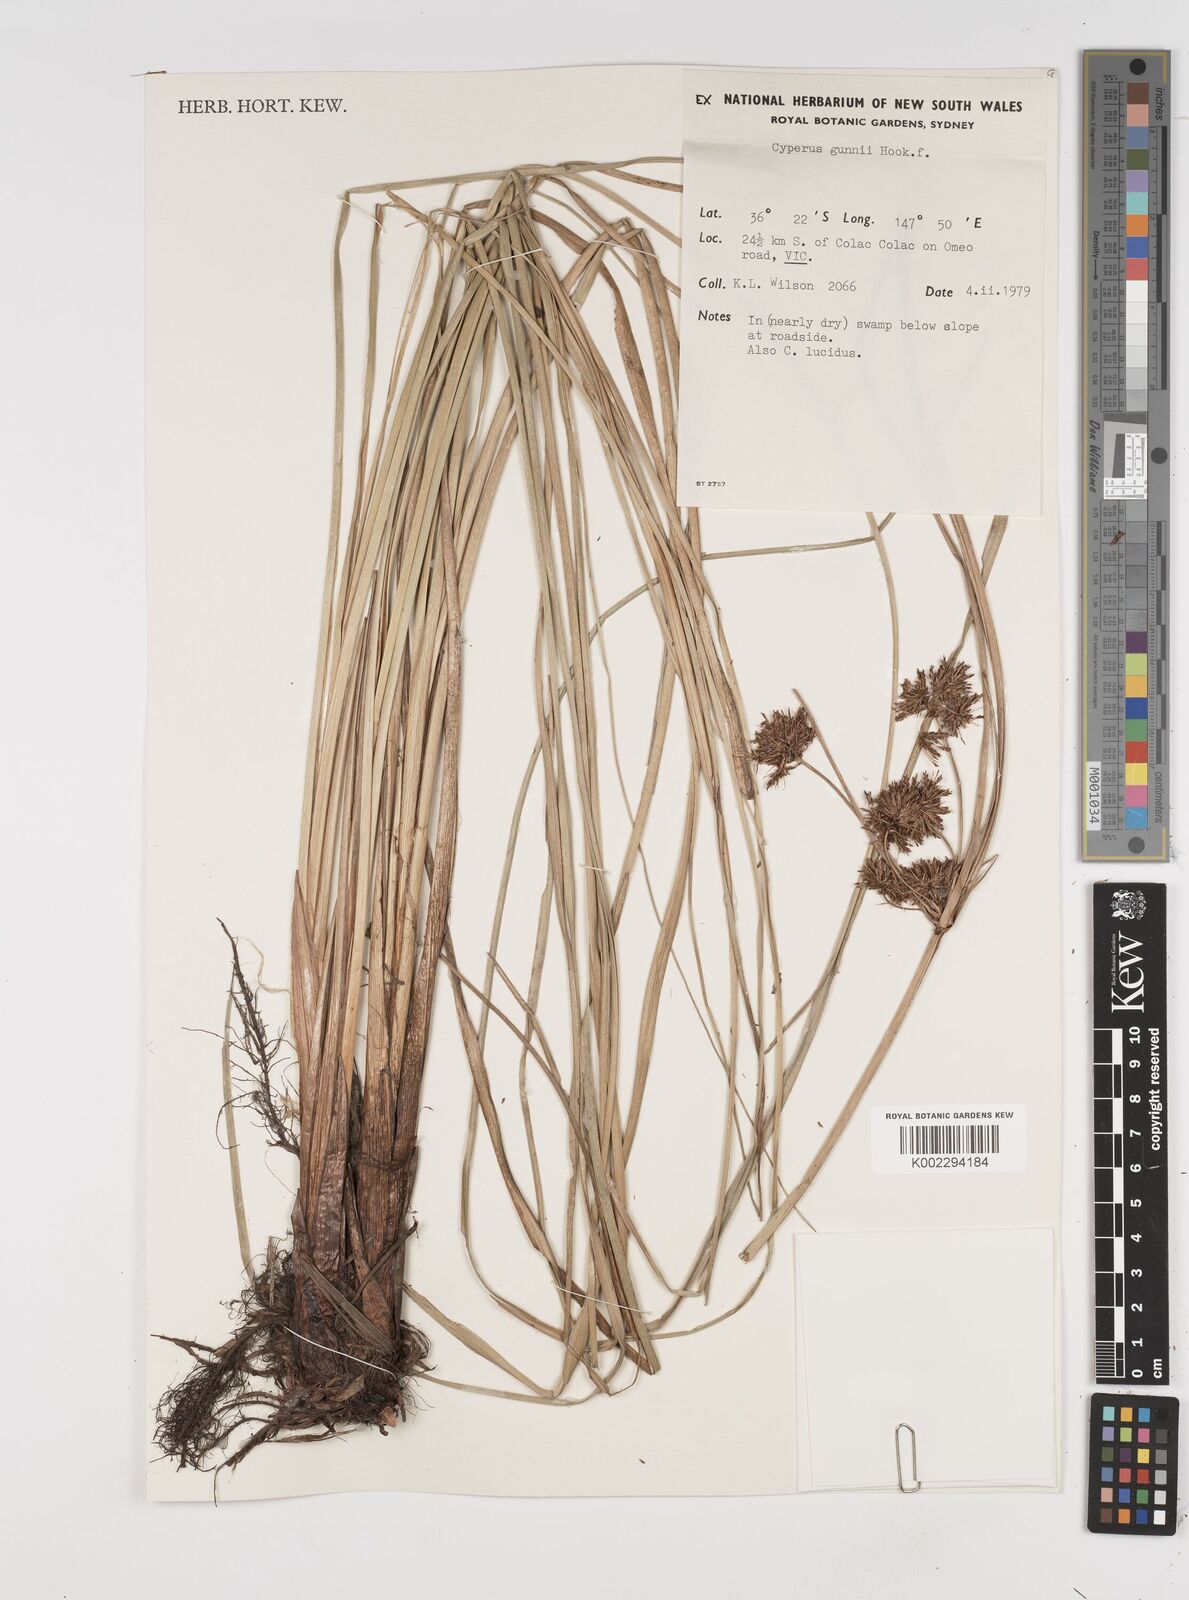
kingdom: Plantae
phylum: Tracheophyta
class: Liliopsida
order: Poales
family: Cyperaceae
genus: Cyperus
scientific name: Cyperus gunnii
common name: Flecked flat-sedge
